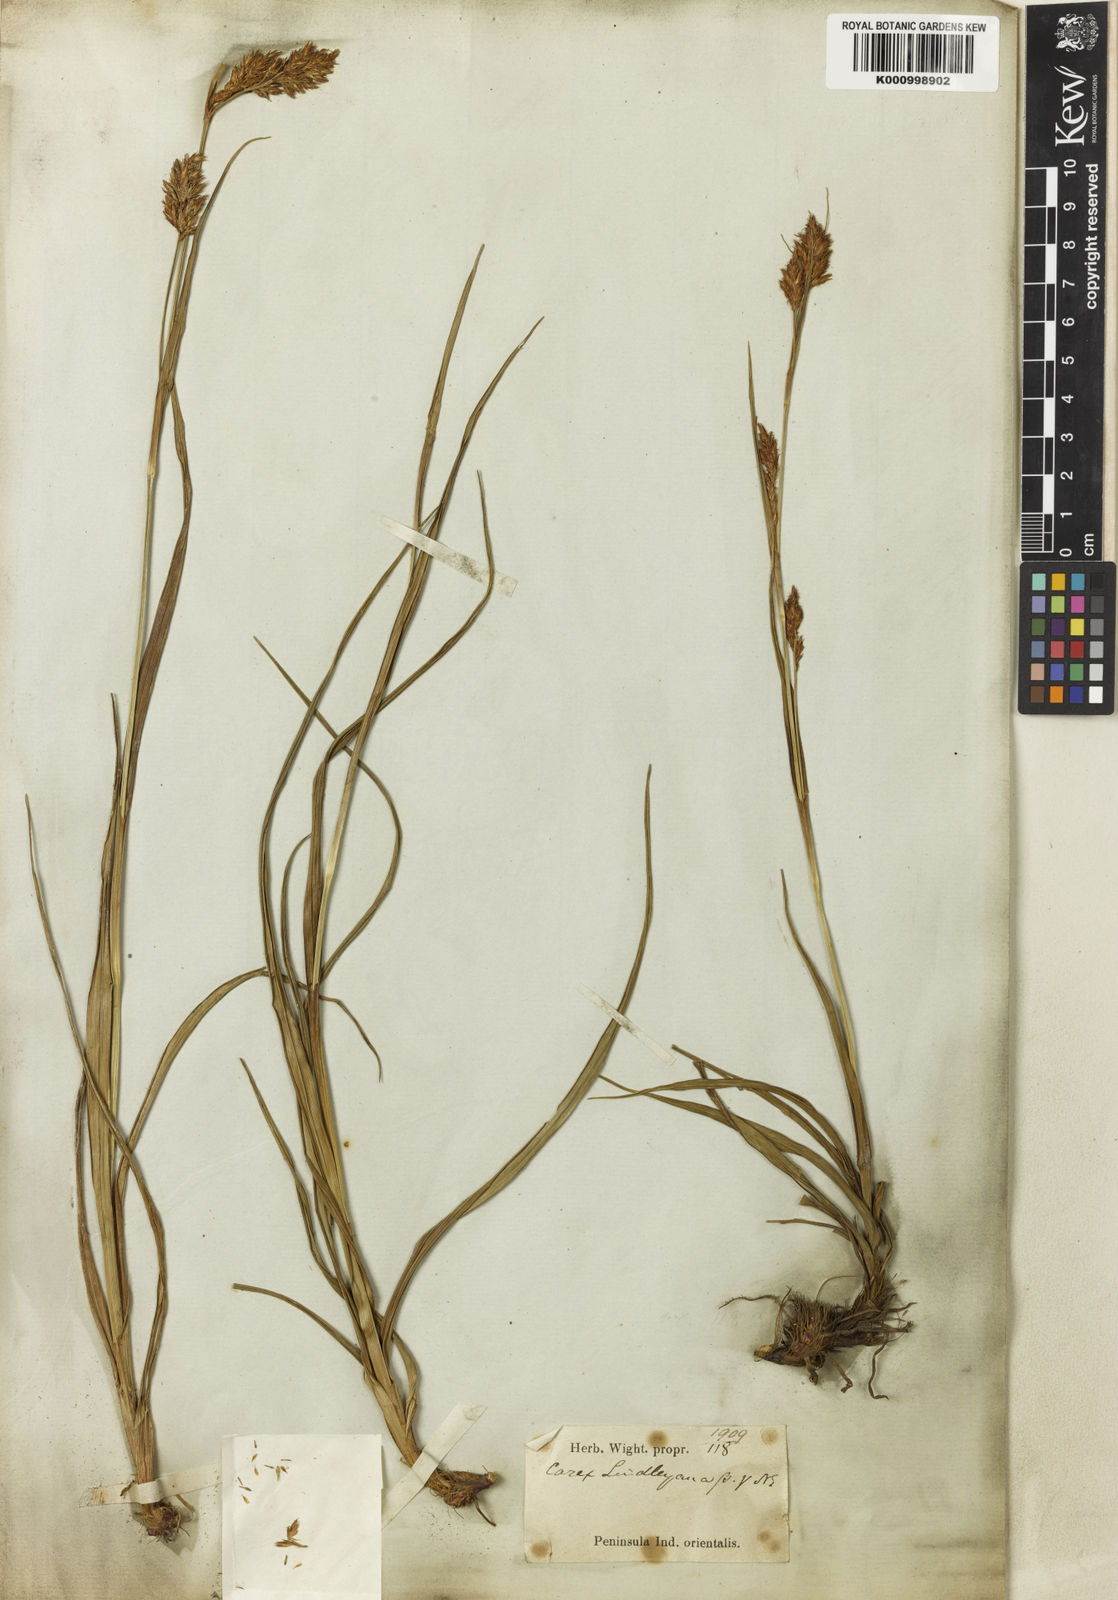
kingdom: Plantae
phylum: Tracheophyta
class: Liliopsida
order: Poales
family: Cyperaceae
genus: Carex
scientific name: Carex lindleyana
